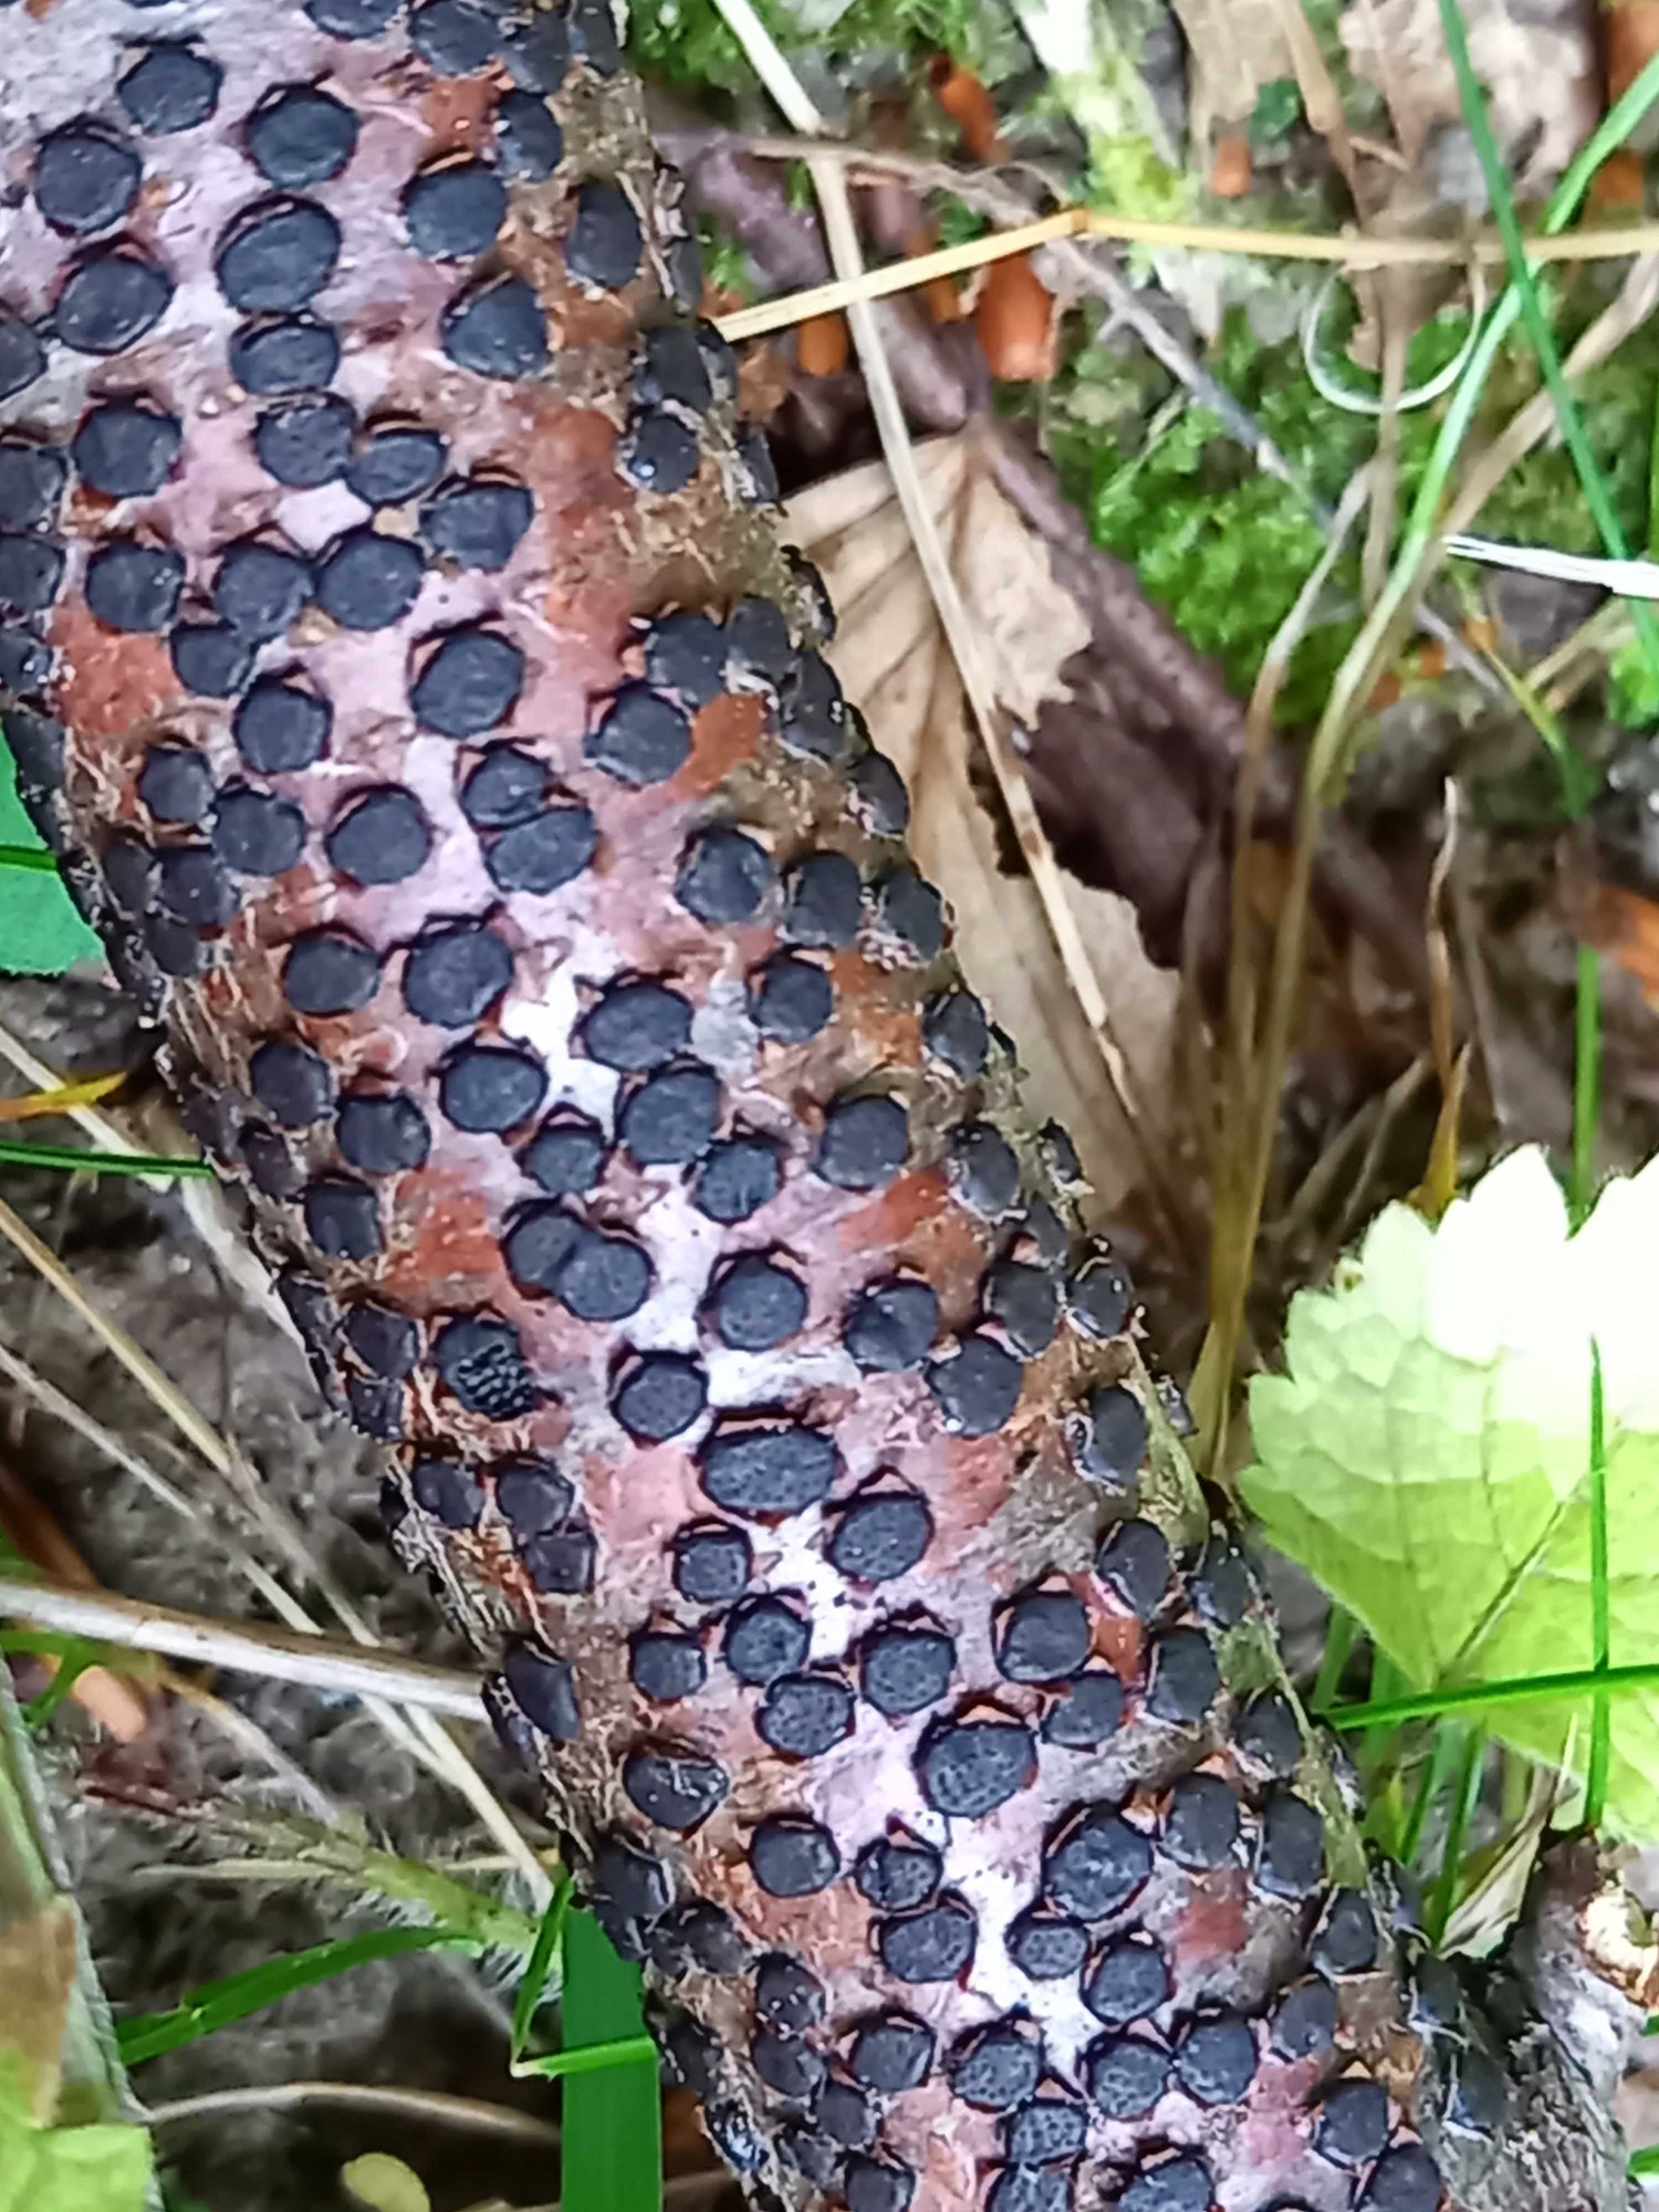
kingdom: Fungi
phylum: Ascomycota
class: Sordariomycetes
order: Xylariales
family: Diatrypaceae
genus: Diatrype
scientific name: Diatrype disciformis
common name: kant-kulskorpe
